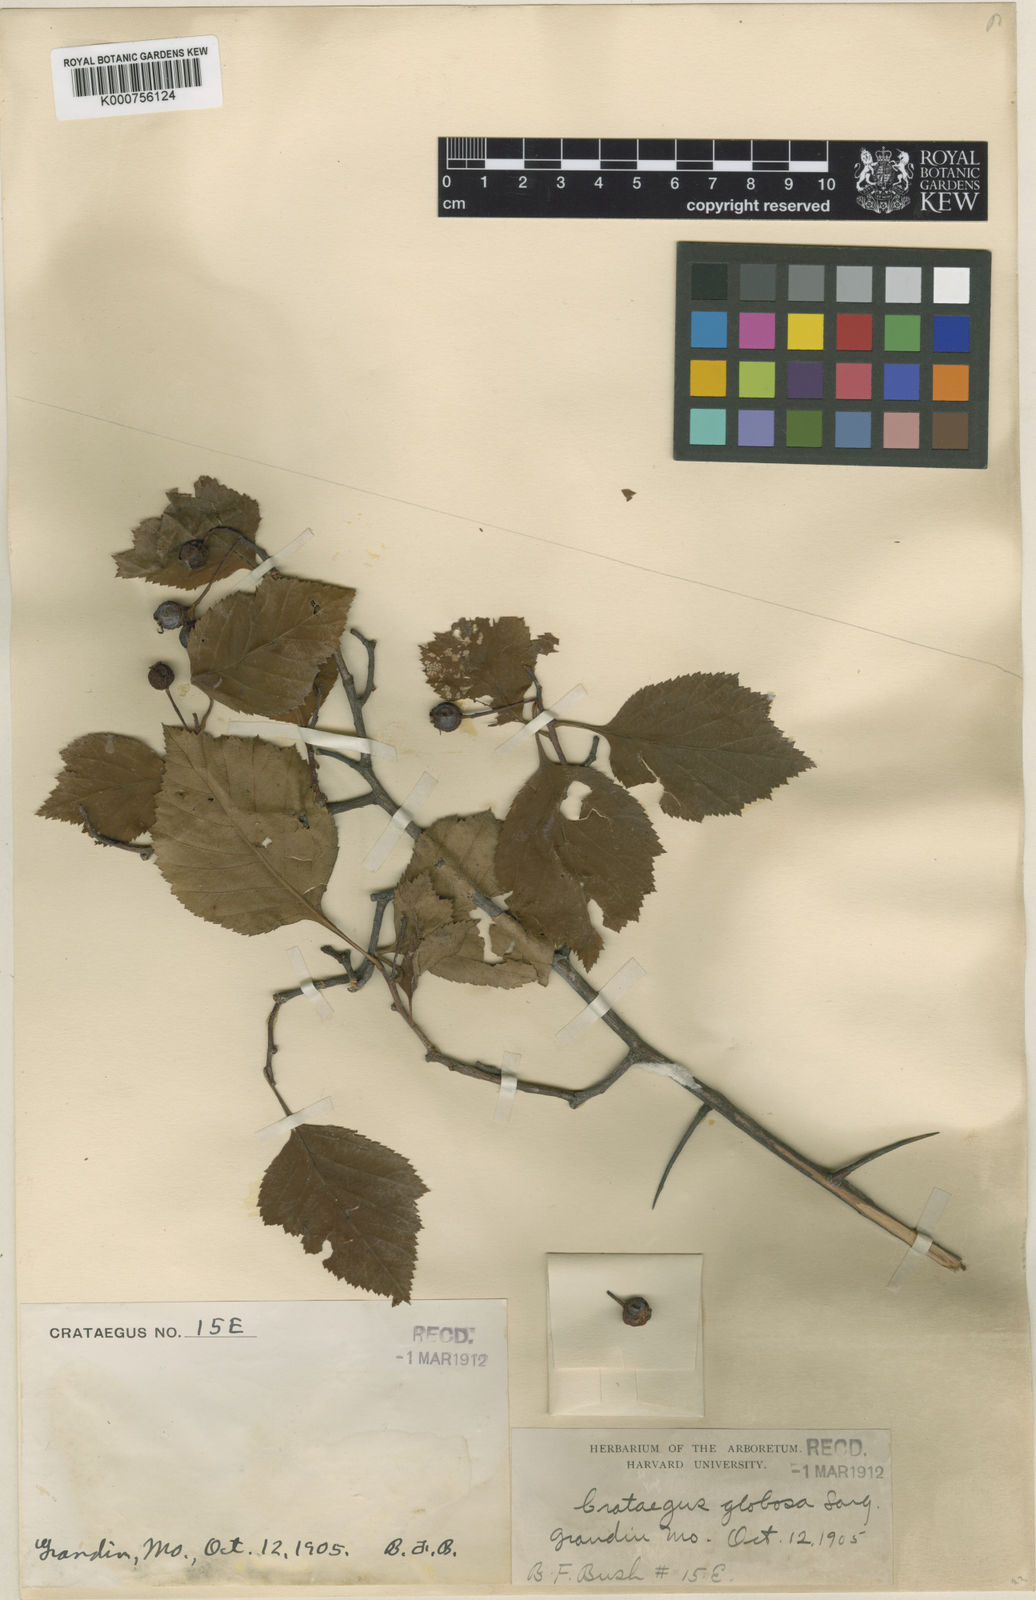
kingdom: Plantae
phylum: Tracheophyta
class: Magnoliopsida
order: Rosales
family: Rosaceae
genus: Crataegus
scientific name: Crataegus calpodendron
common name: Pear hawthorn
